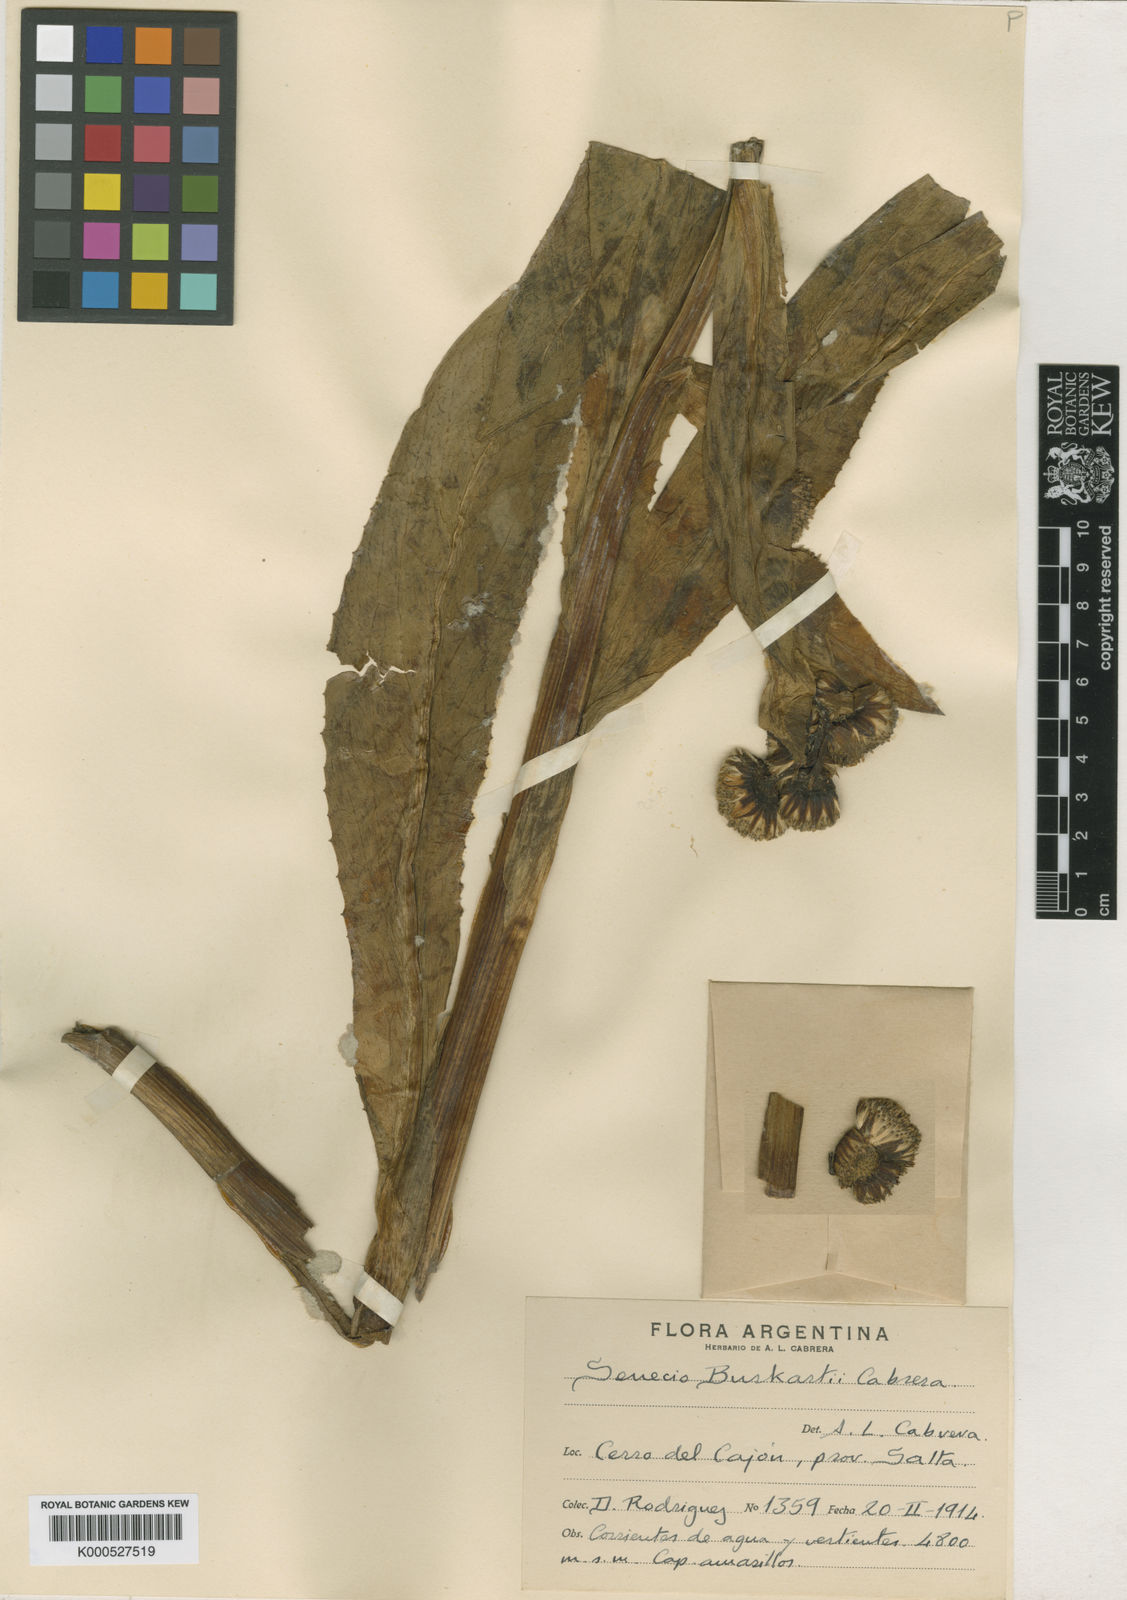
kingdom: Plantae
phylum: Tracheophyta
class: Magnoliopsida
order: Asterales
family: Asteraceae
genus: Senecio
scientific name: Senecio burkartii
